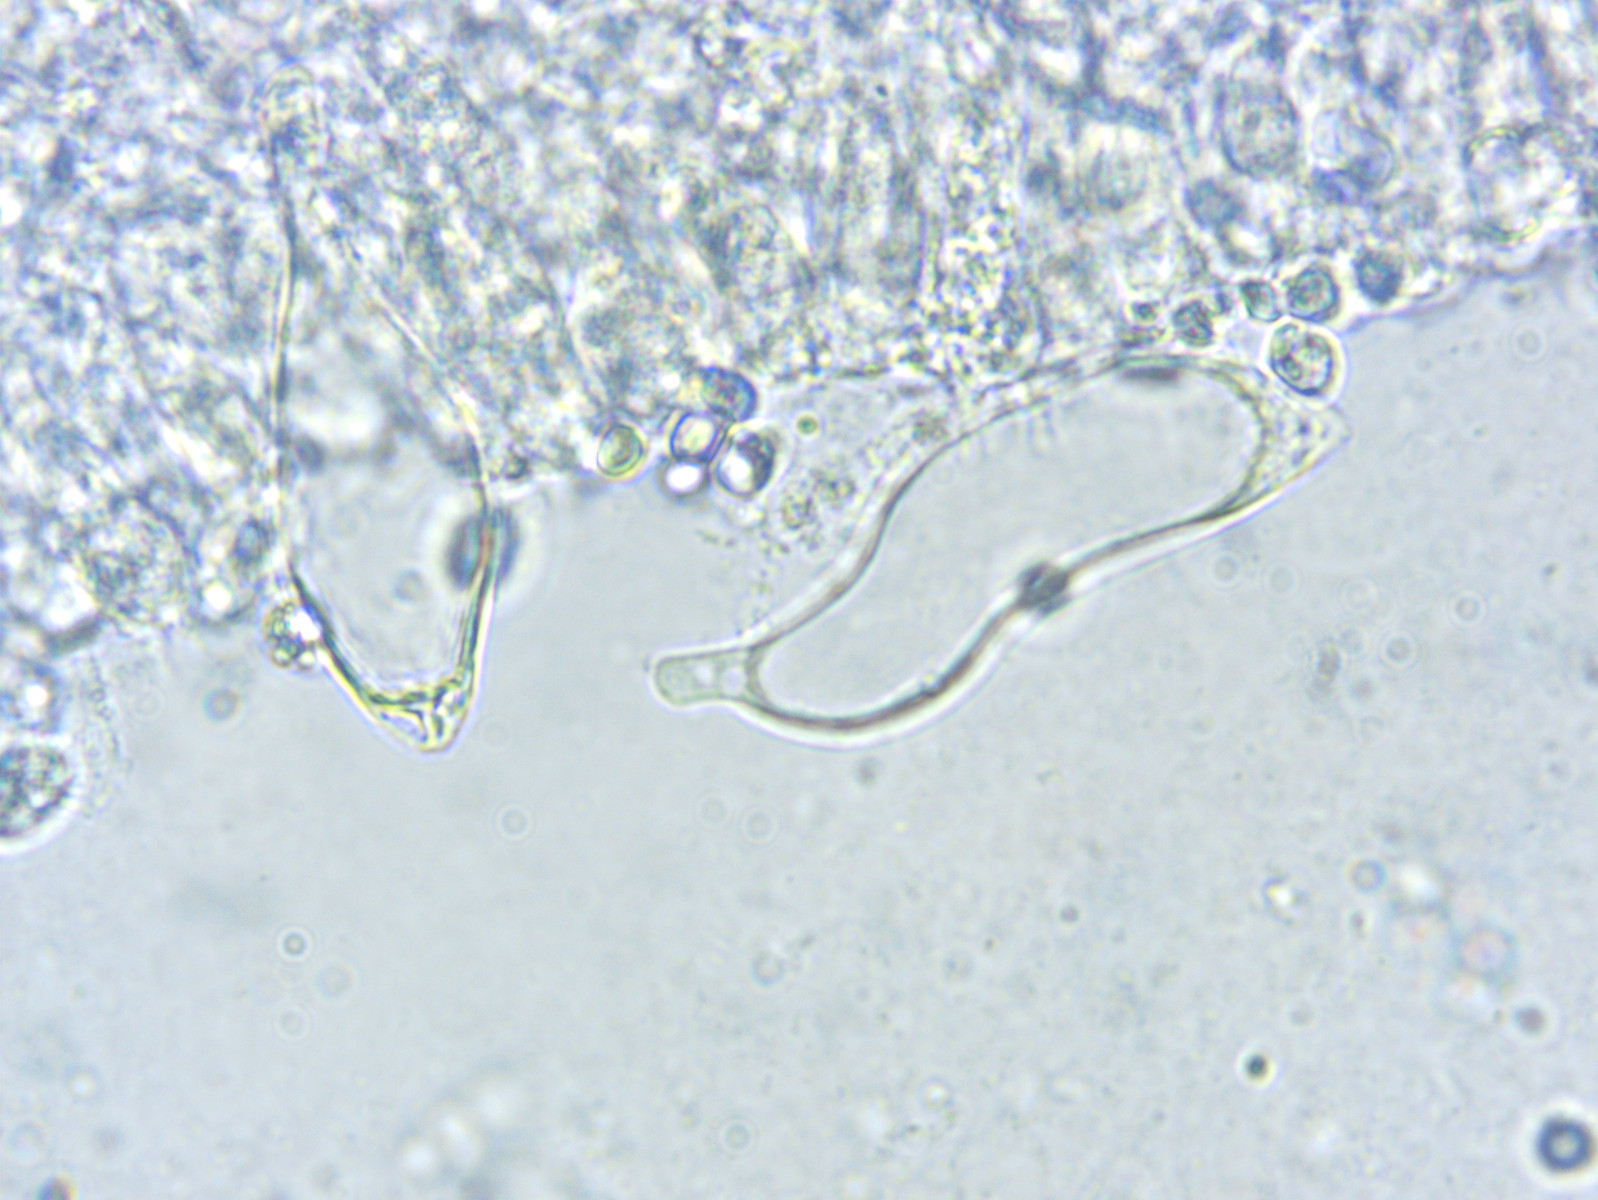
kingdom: Fungi
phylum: Basidiomycota
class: Agaricomycetes
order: Agaricales
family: Mycenaceae
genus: Mycena
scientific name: Mycena aetites
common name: plæne-huesvamp
